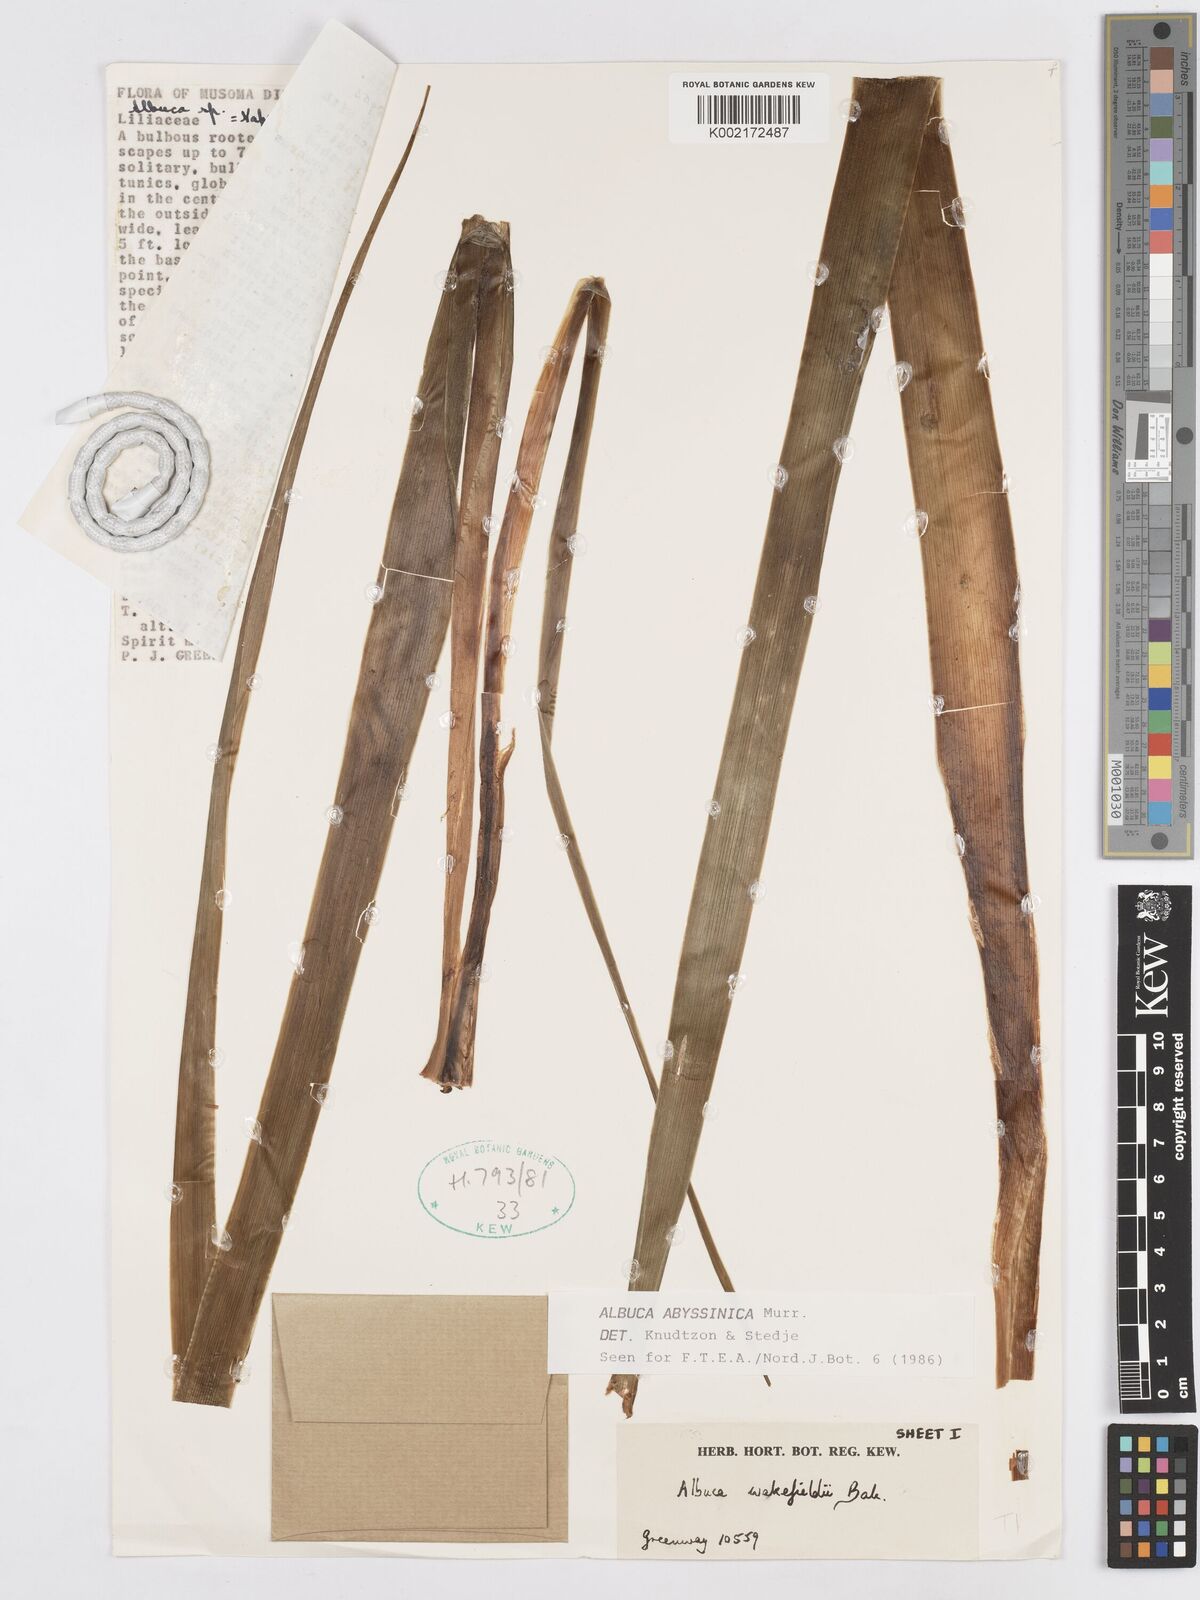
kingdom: Plantae
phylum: Tracheophyta
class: Liliopsida
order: Asparagales
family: Asparagaceae
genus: Albuca
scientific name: Albuca abyssinica
